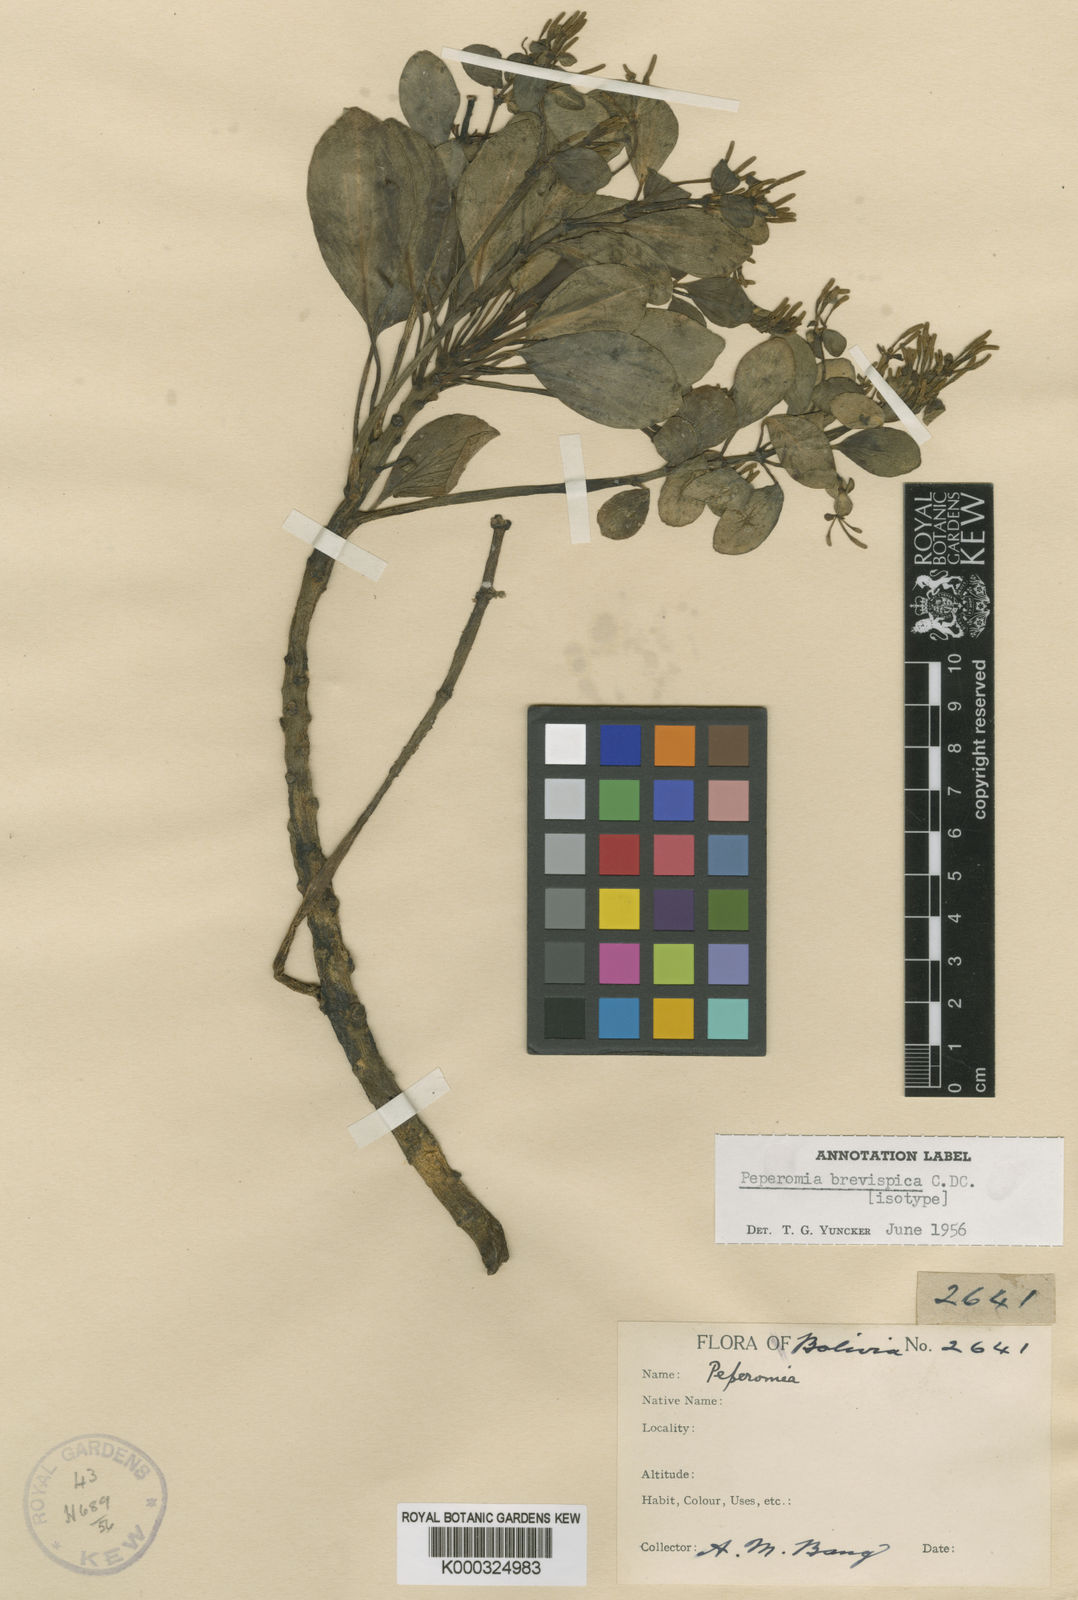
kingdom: Plantae
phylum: Tracheophyta
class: Magnoliopsida
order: Piperales
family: Piperaceae
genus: Peperomia
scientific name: Peperomia brevispica
